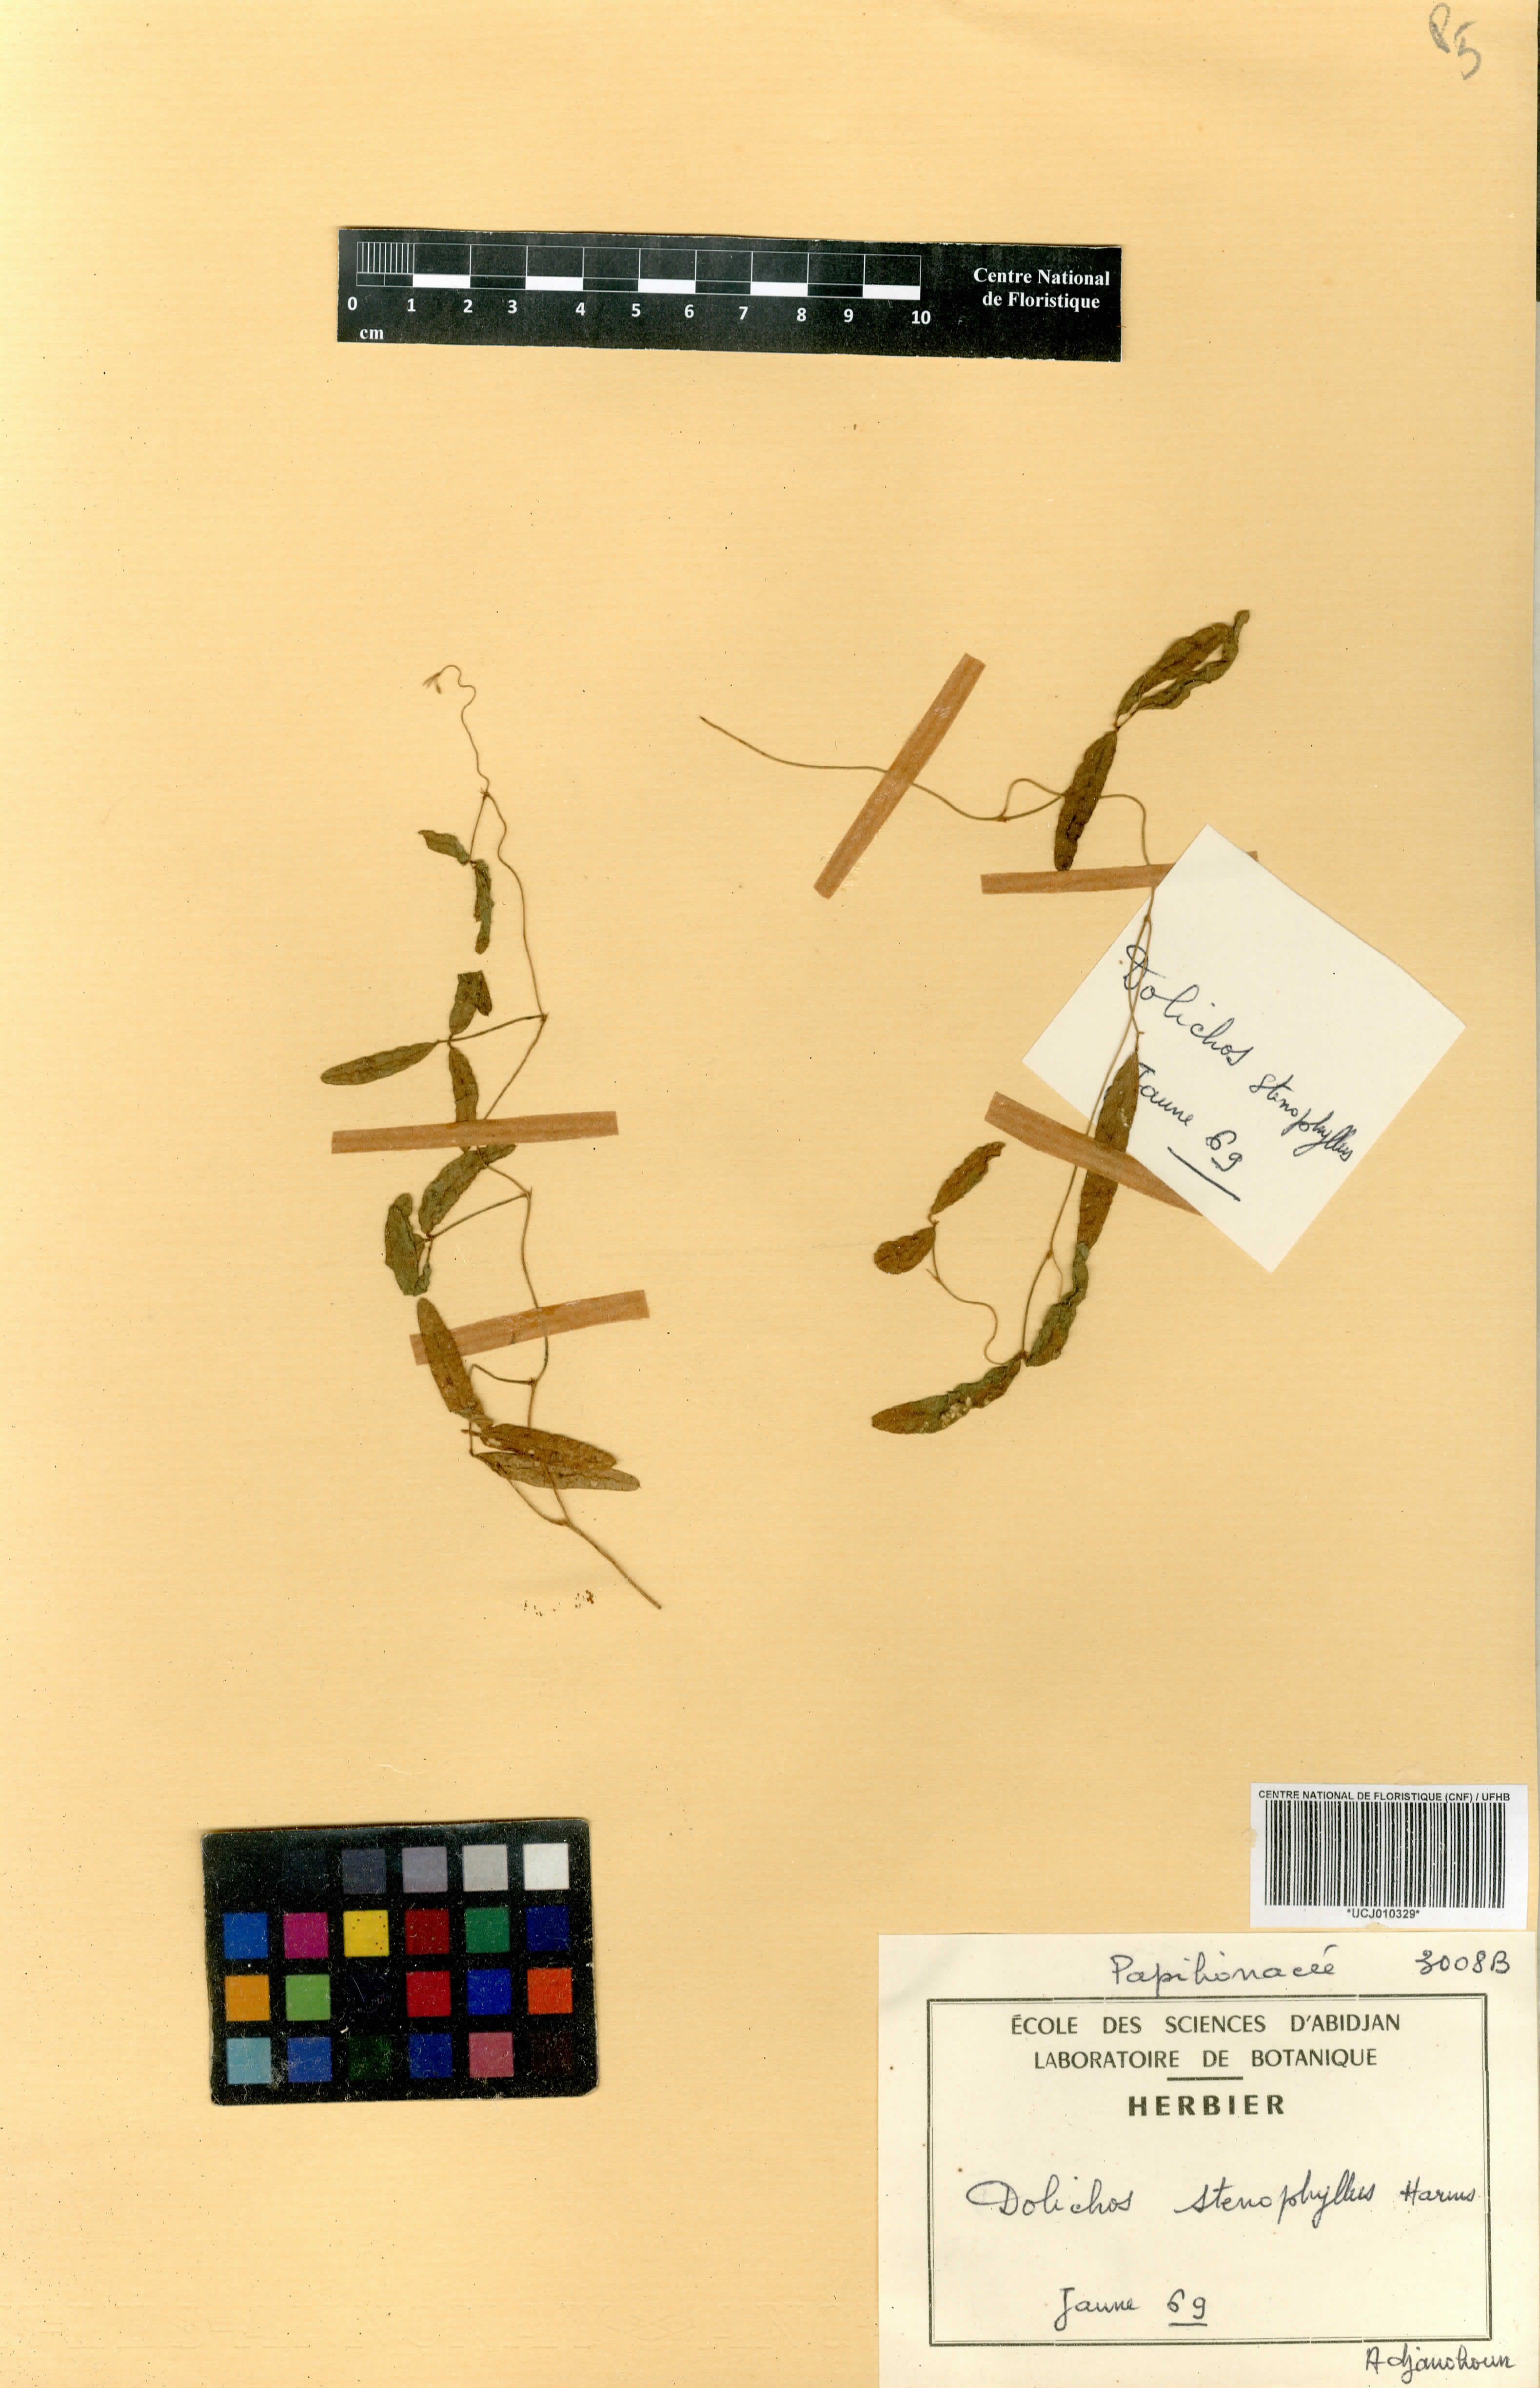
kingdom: Plantae
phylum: Tracheophyta
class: Magnoliopsida
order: Fabales
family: Fabaceae
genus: Macrotyloma
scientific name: Macrotyloma stenophyllum
